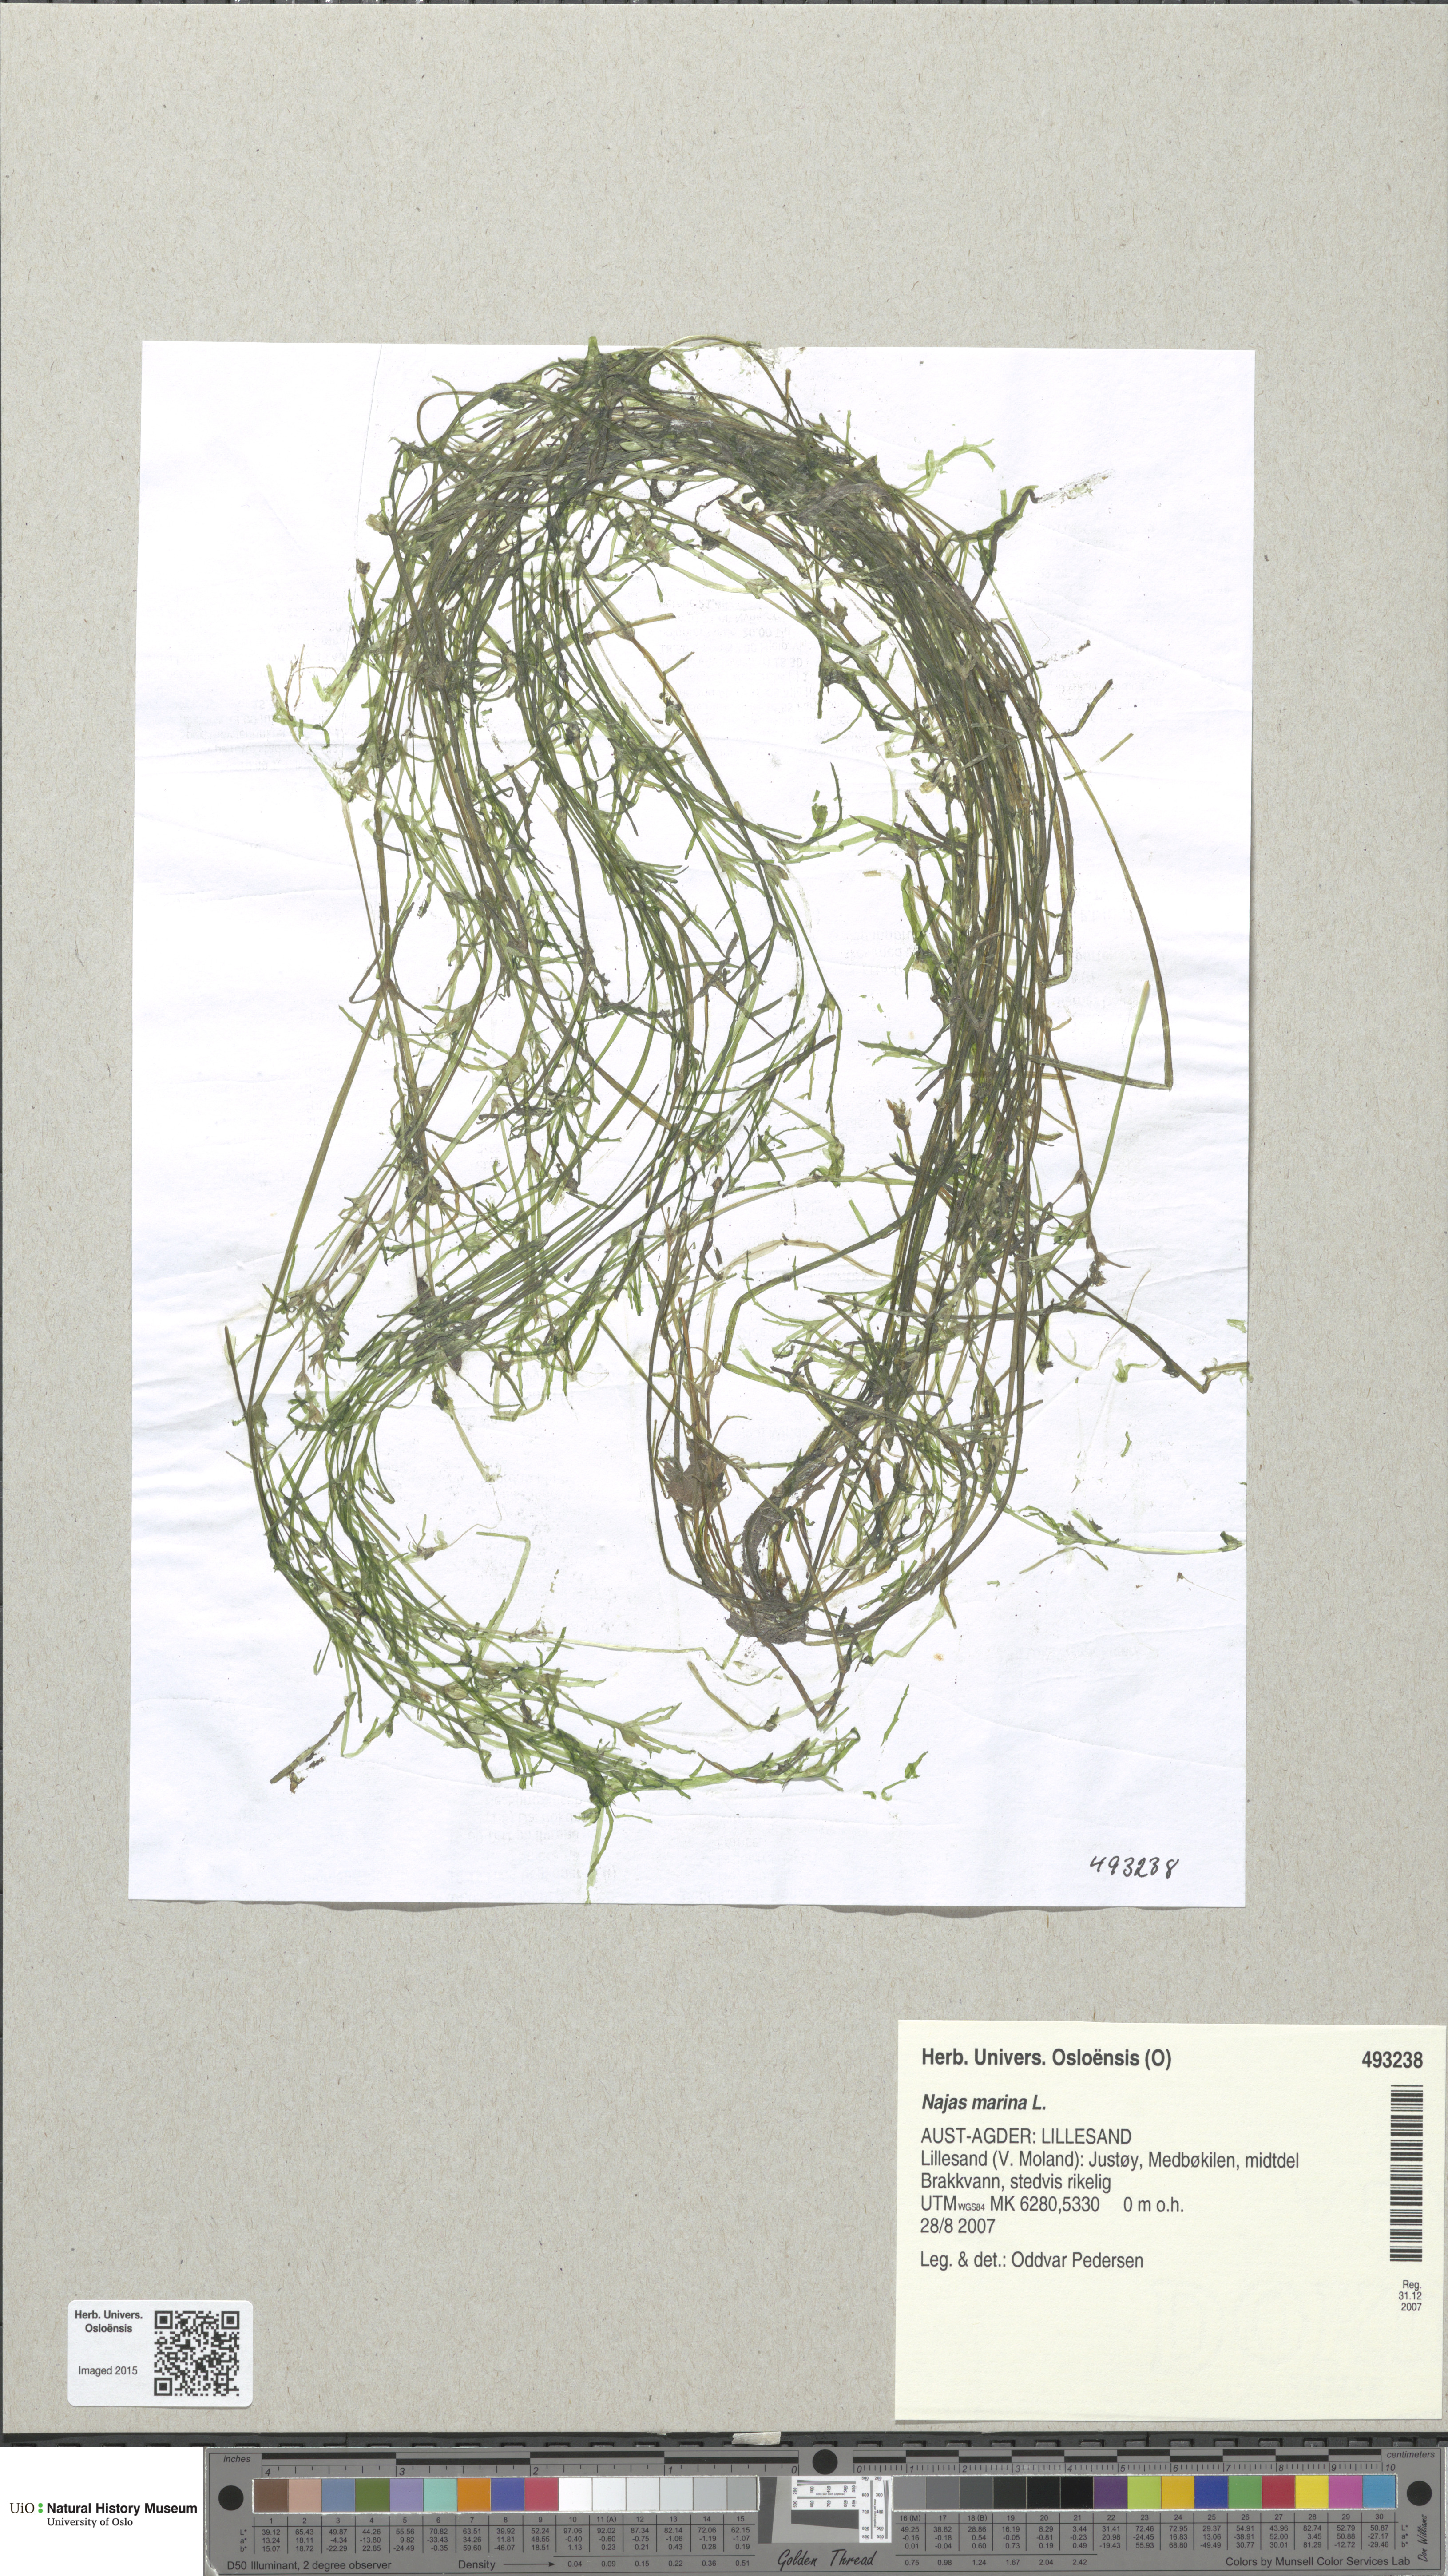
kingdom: Plantae
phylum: Tracheophyta
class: Liliopsida
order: Alismatales
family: Hydrocharitaceae
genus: Najas
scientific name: Najas marina
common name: Holly-leaved naiad
